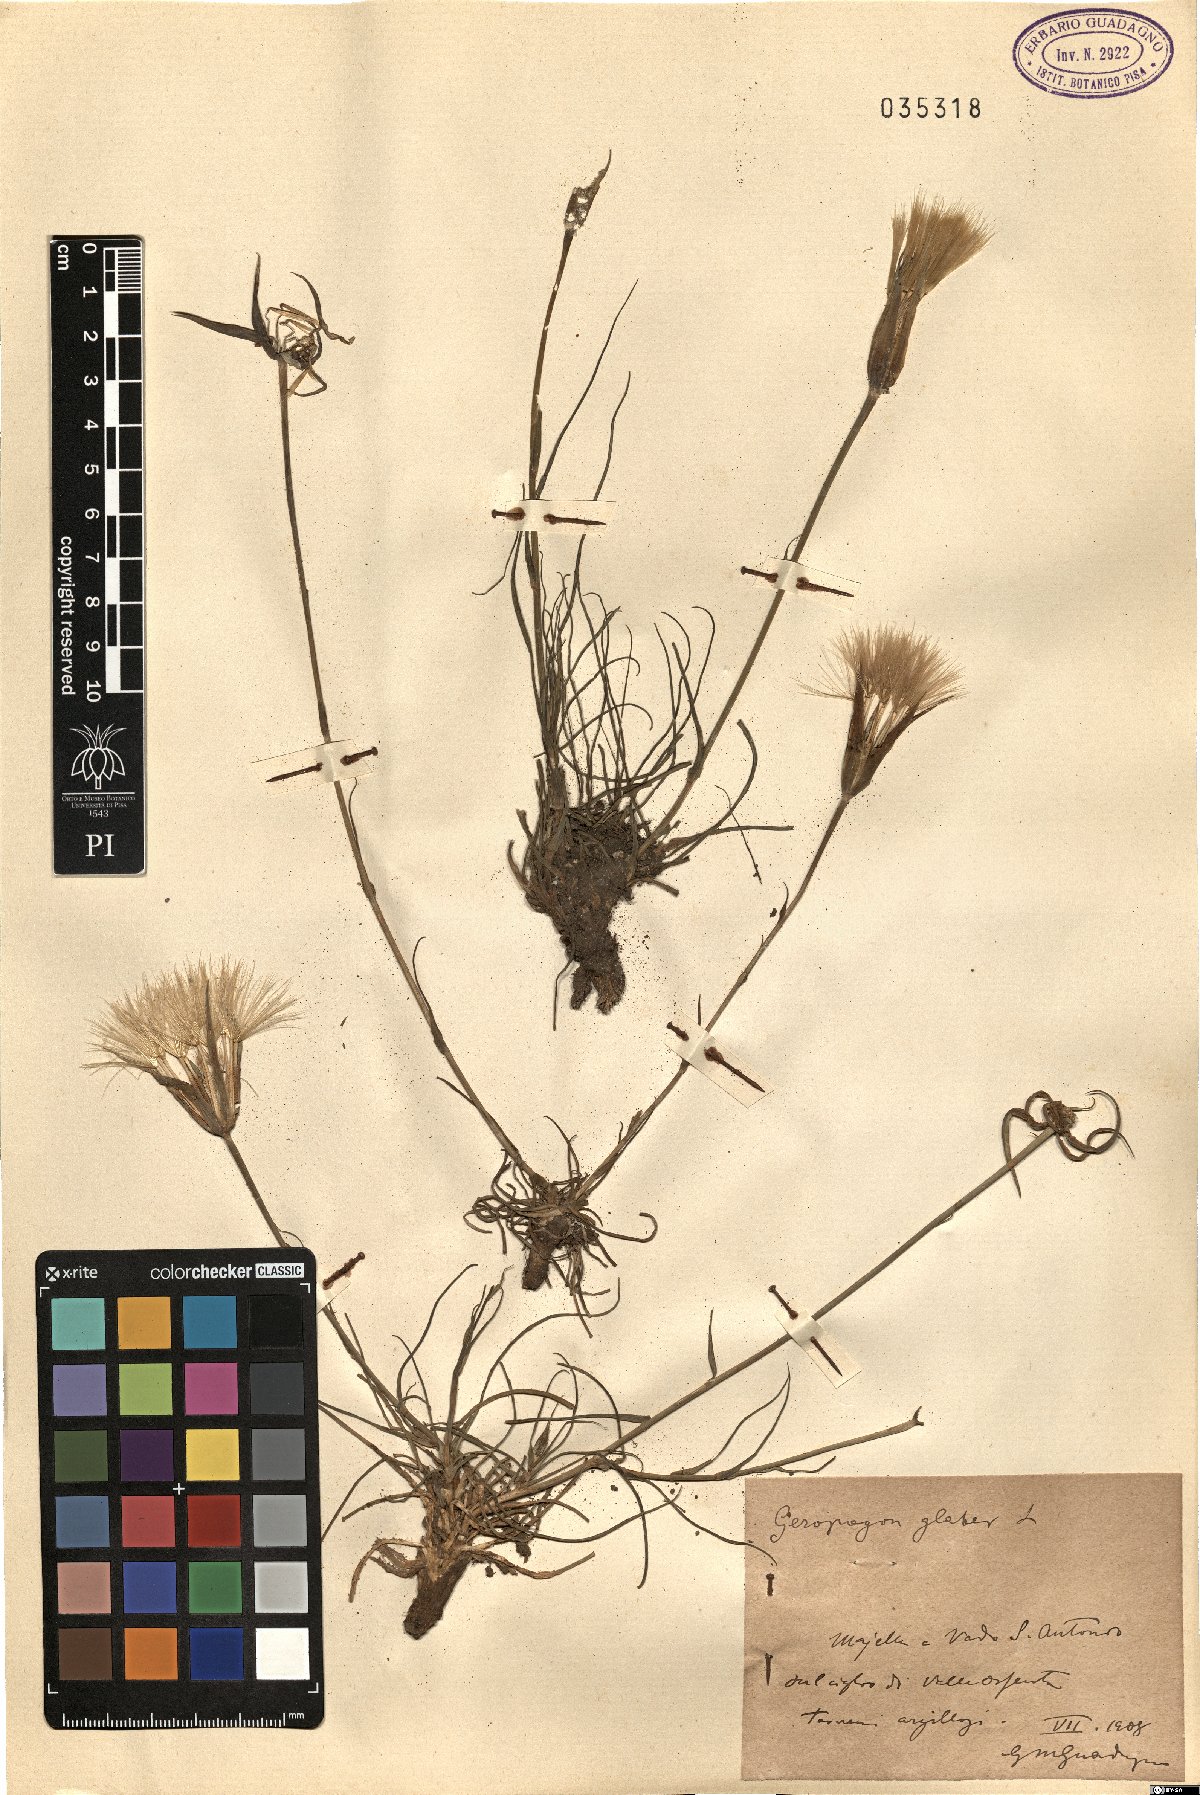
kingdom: Plantae
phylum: Tracheophyta
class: Magnoliopsida
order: Asterales
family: Asteraceae
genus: Geropogon
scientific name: Geropogon hybridus
